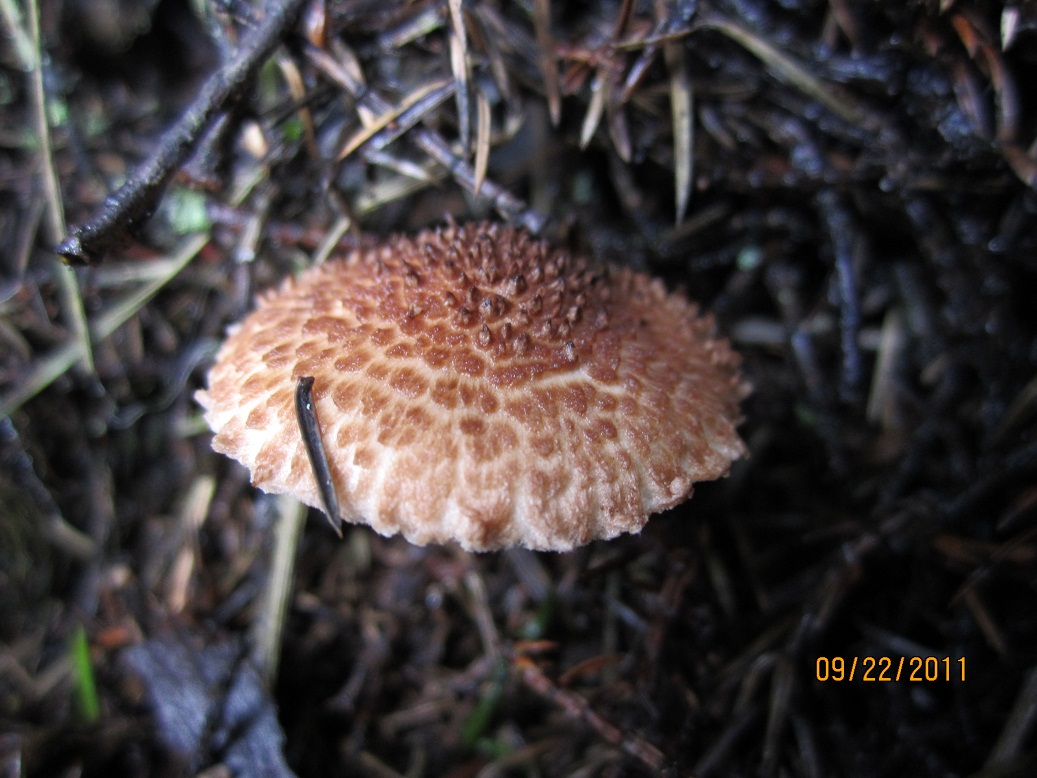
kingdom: Fungi
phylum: Basidiomycota
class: Agaricomycetes
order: Agaricales
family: Agaricaceae
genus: Echinoderma
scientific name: Echinoderma echinaceum
